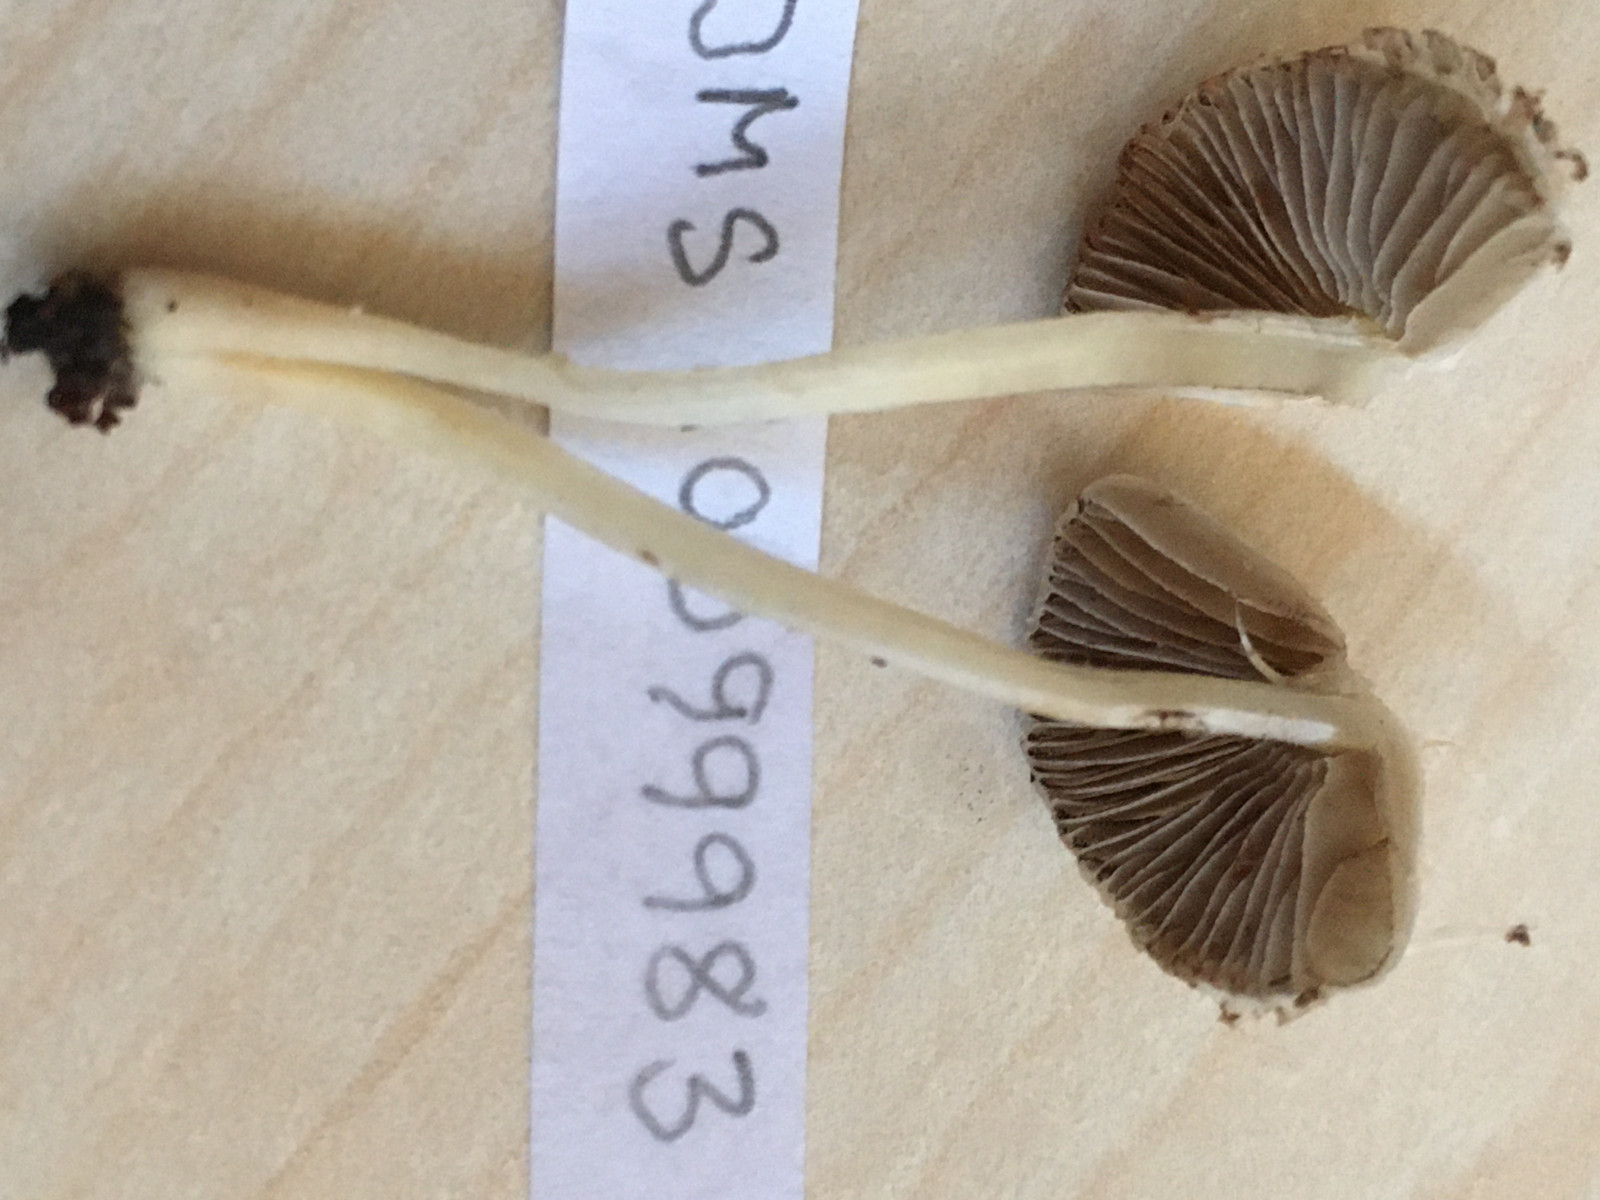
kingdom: Fungi
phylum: Basidiomycota
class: Agaricomycetes
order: Agaricales
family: Inocybaceae
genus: Inocybe
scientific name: Inocybe
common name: almindelig trævlhat
